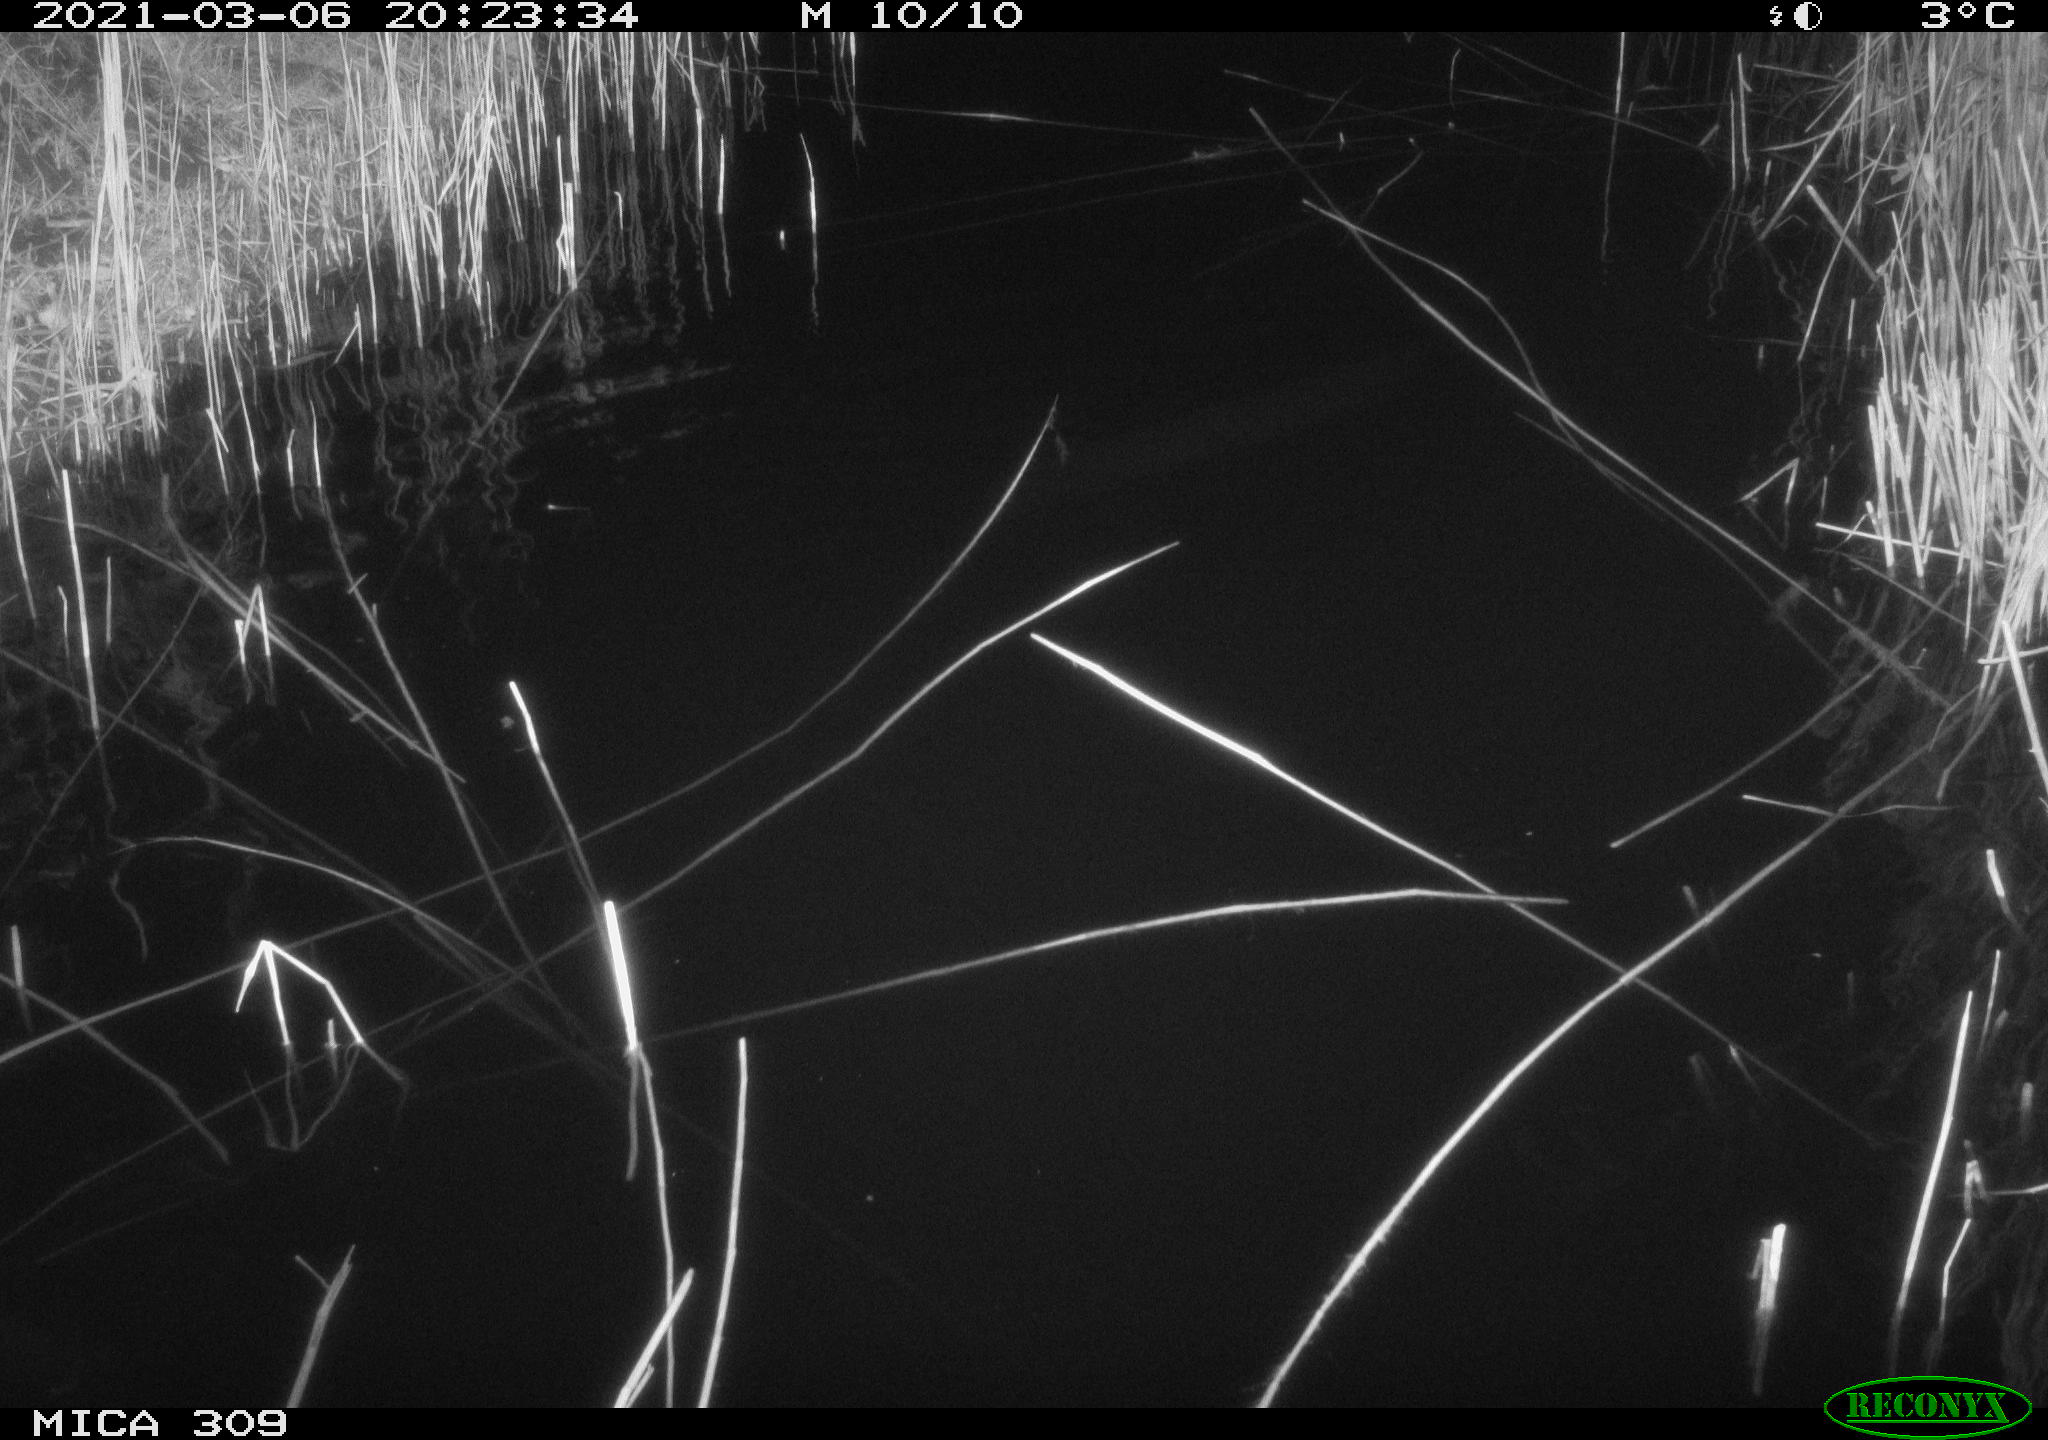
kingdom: Animalia
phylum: Chordata
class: Mammalia
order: Rodentia
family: Muridae
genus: Rattus
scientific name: Rattus norvegicus
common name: Brown rat
